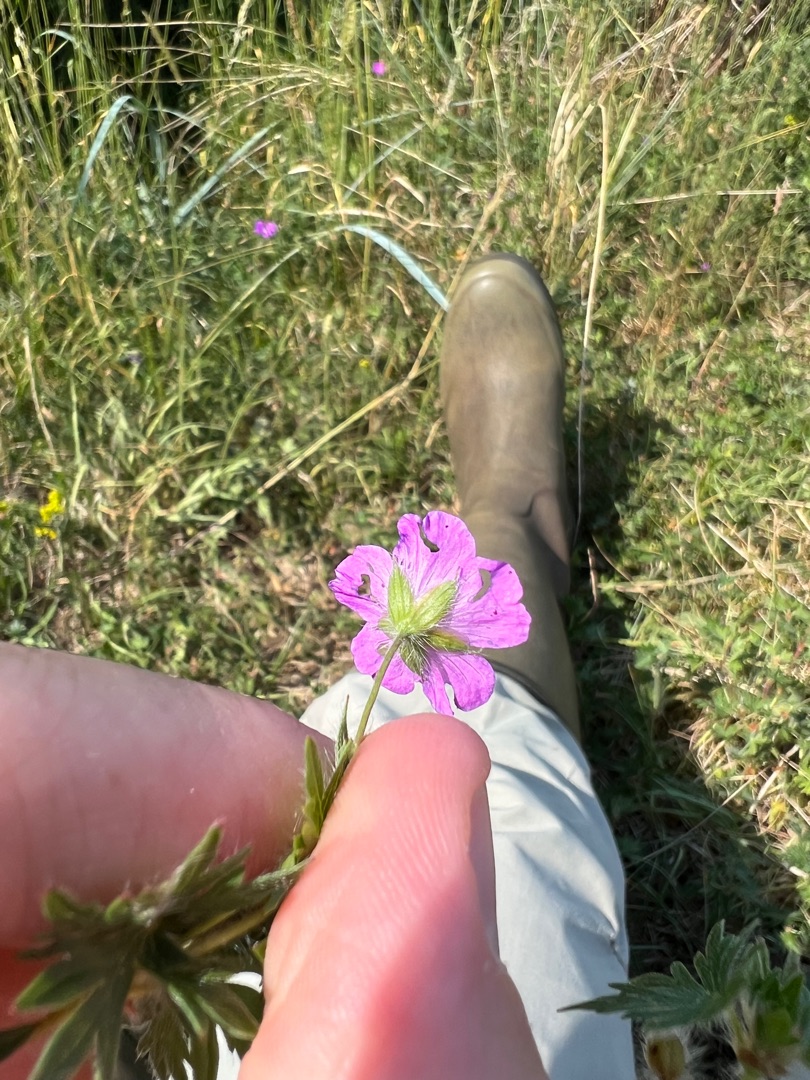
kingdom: Plantae
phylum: Tracheophyta
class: Magnoliopsida
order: Geraniales
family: Geraniaceae
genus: Geranium
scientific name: Geranium sanguineum
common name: Blodrød storkenæb
